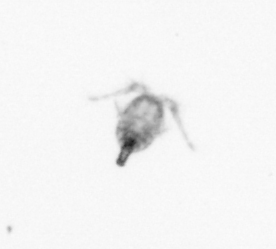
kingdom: Animalia
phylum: Arthropoda
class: Copepoda
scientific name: Copepoda
